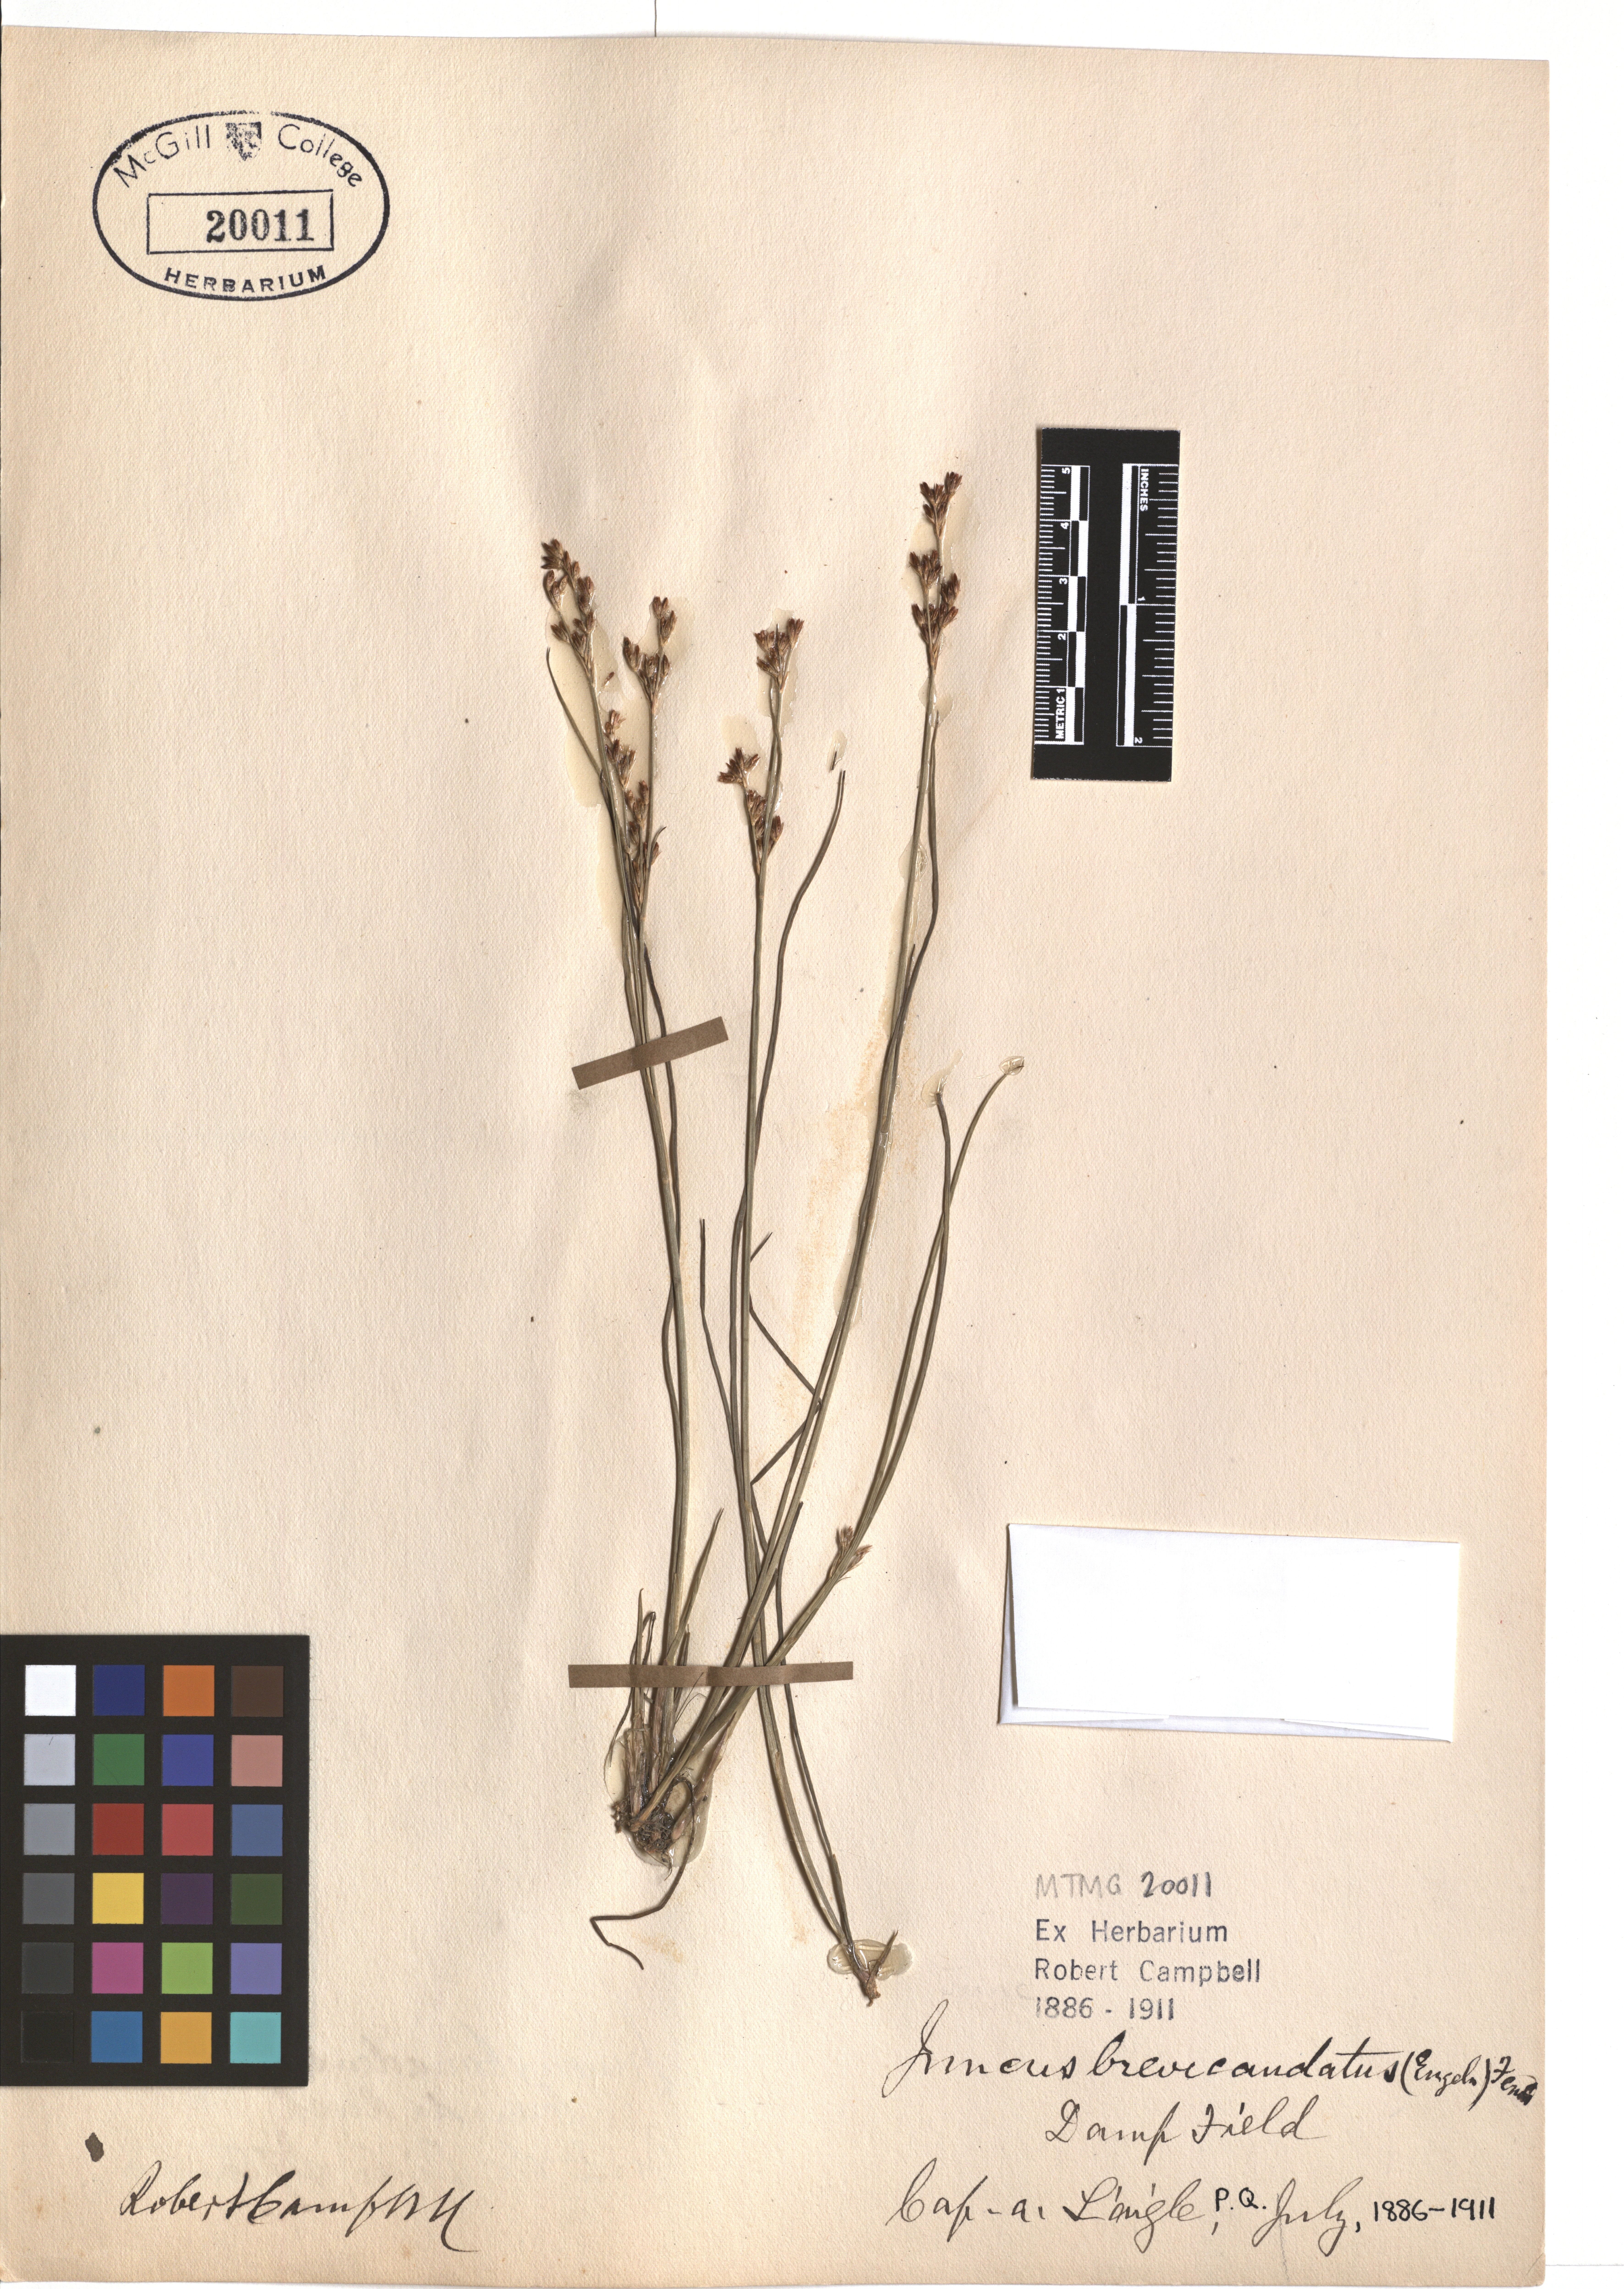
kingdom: Plantae
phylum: Tracheophyta
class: Liliopsida
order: Poales
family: Juncaceae
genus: Juncus
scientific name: Juncus brevicaudatus
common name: Narrow-panicle rush
